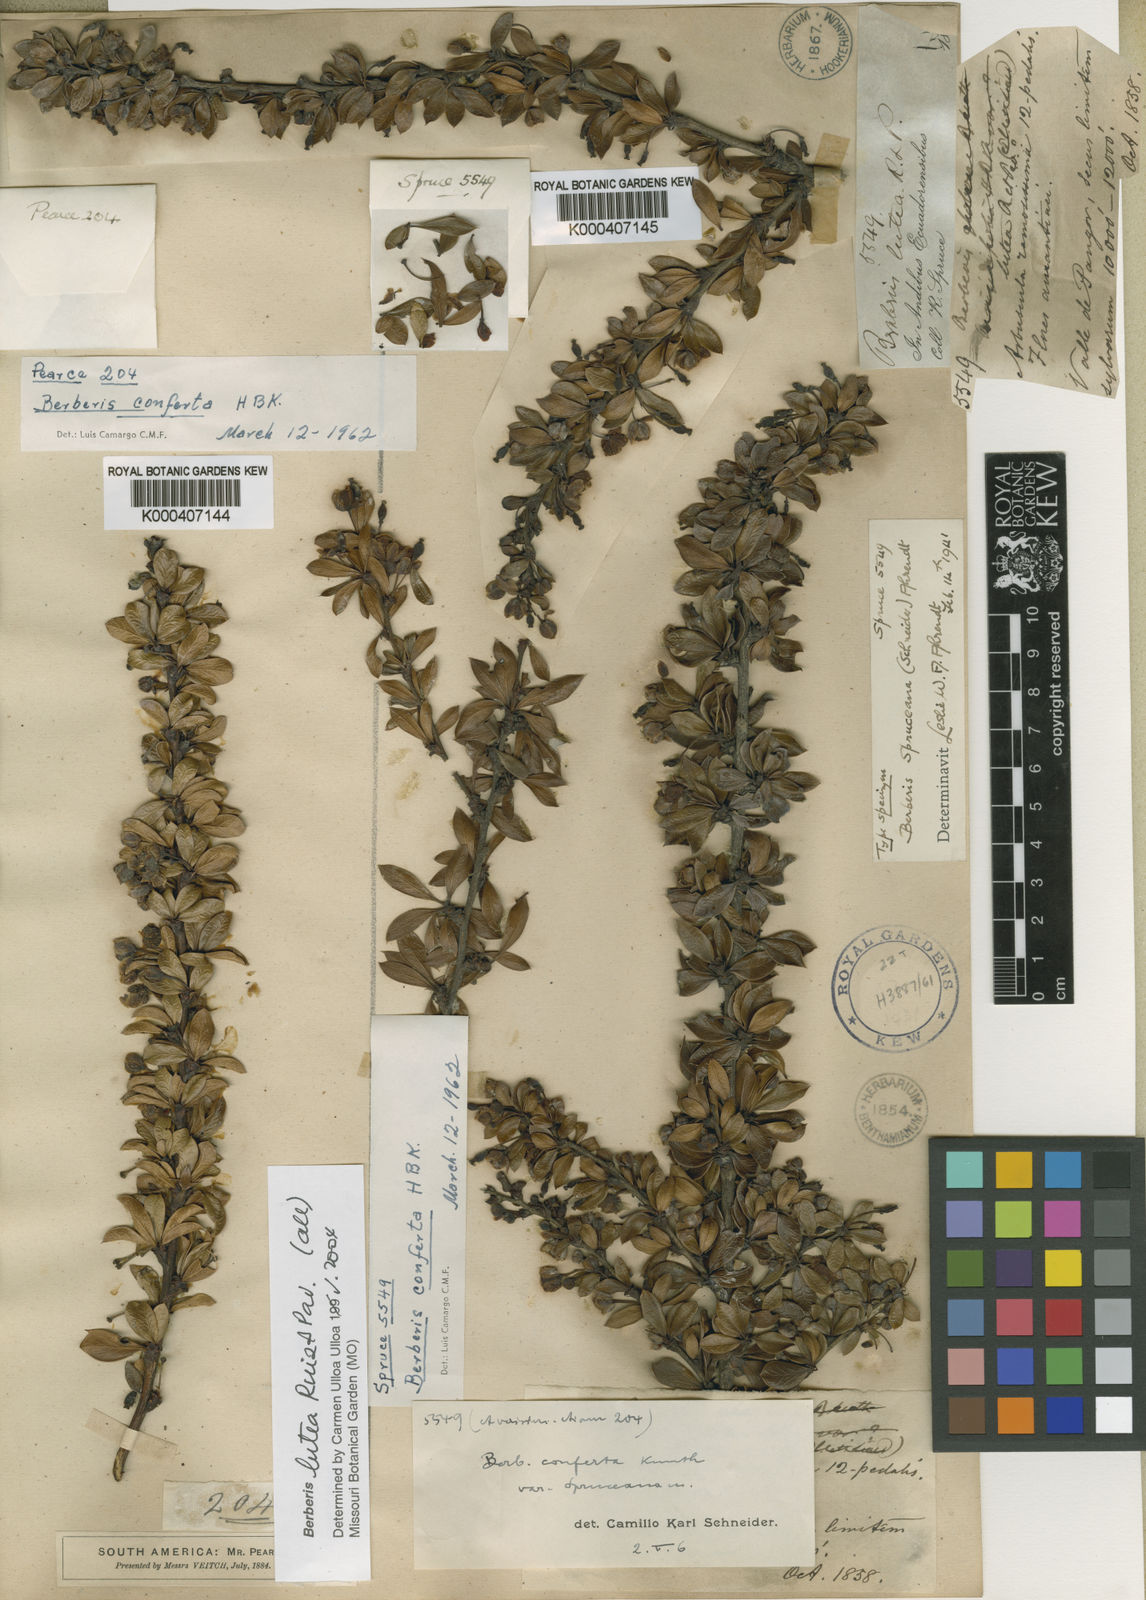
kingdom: Plantae
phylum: Tracheophyta
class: Magnoliopsida
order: Ranunculales
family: Berberidaceae
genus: Berberis
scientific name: Berberis lutea
